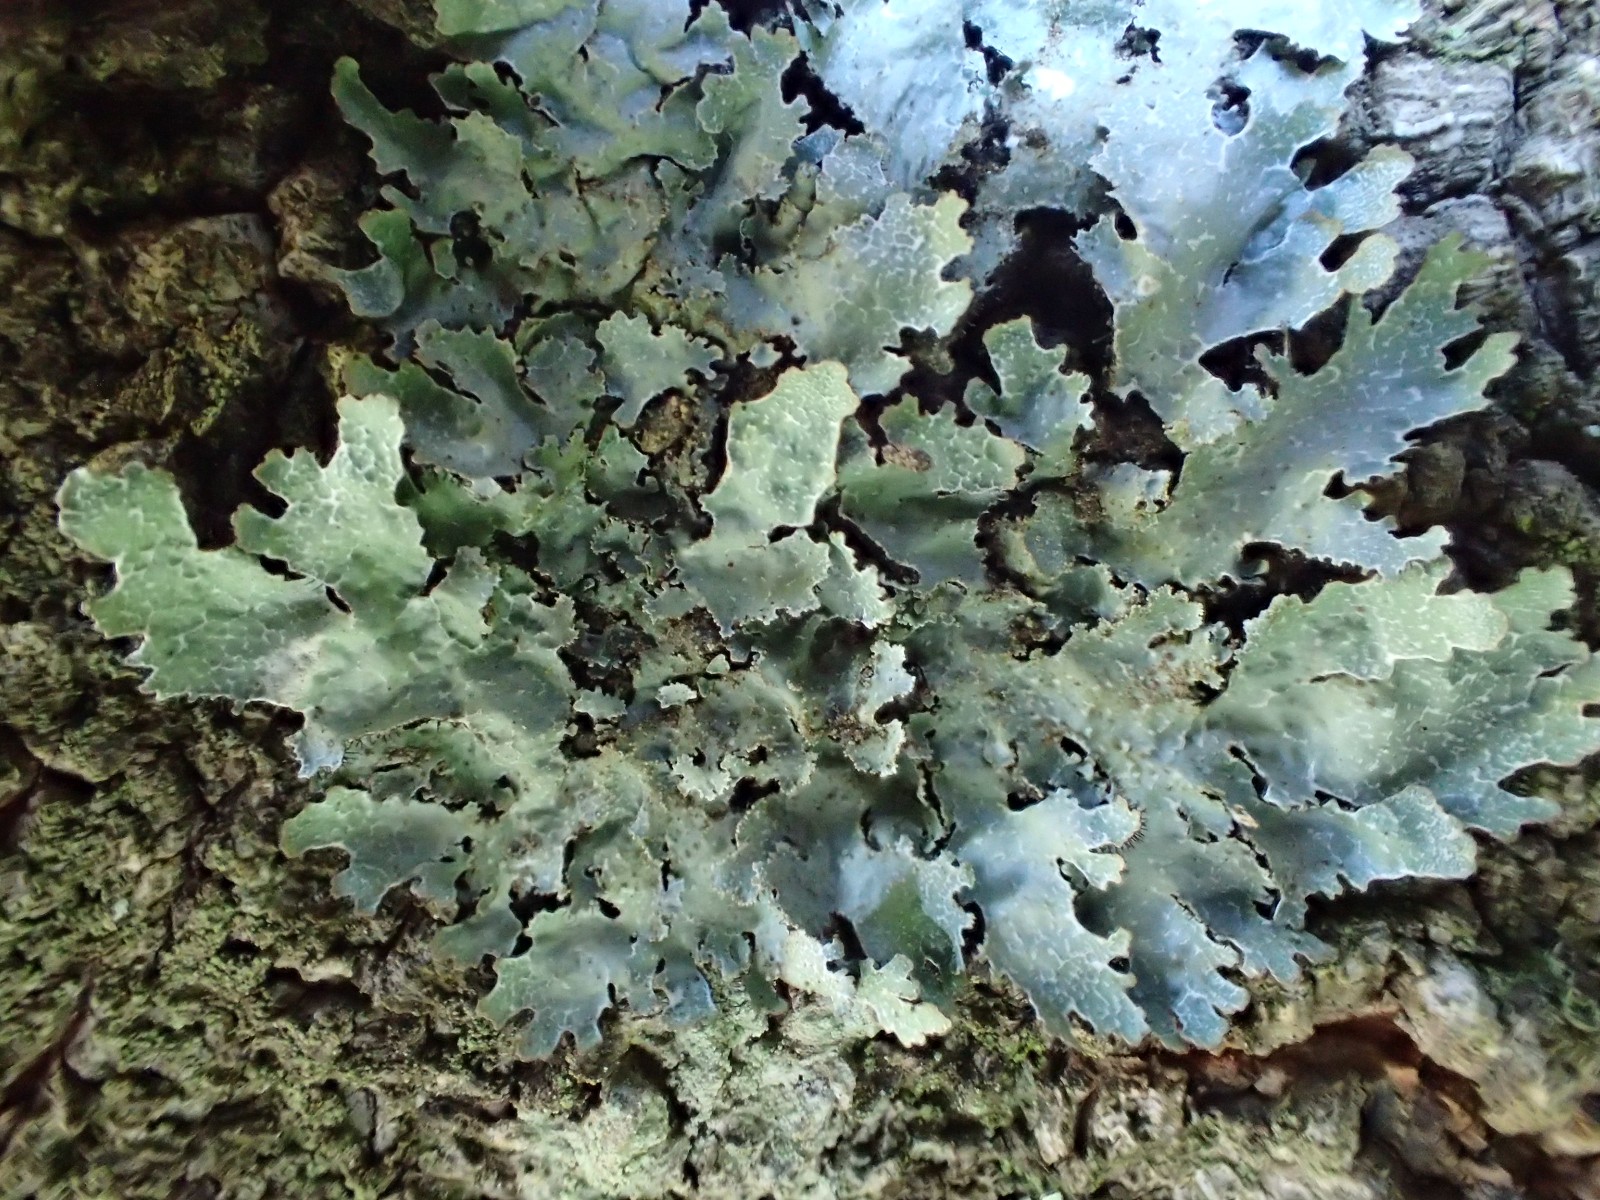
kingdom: Fungi
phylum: Ascomycota
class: Lecanoromycetes
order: Lecanorales
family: Parmeliaceae
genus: Parmelia
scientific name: Parmelia sulcata
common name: rynket skållav
